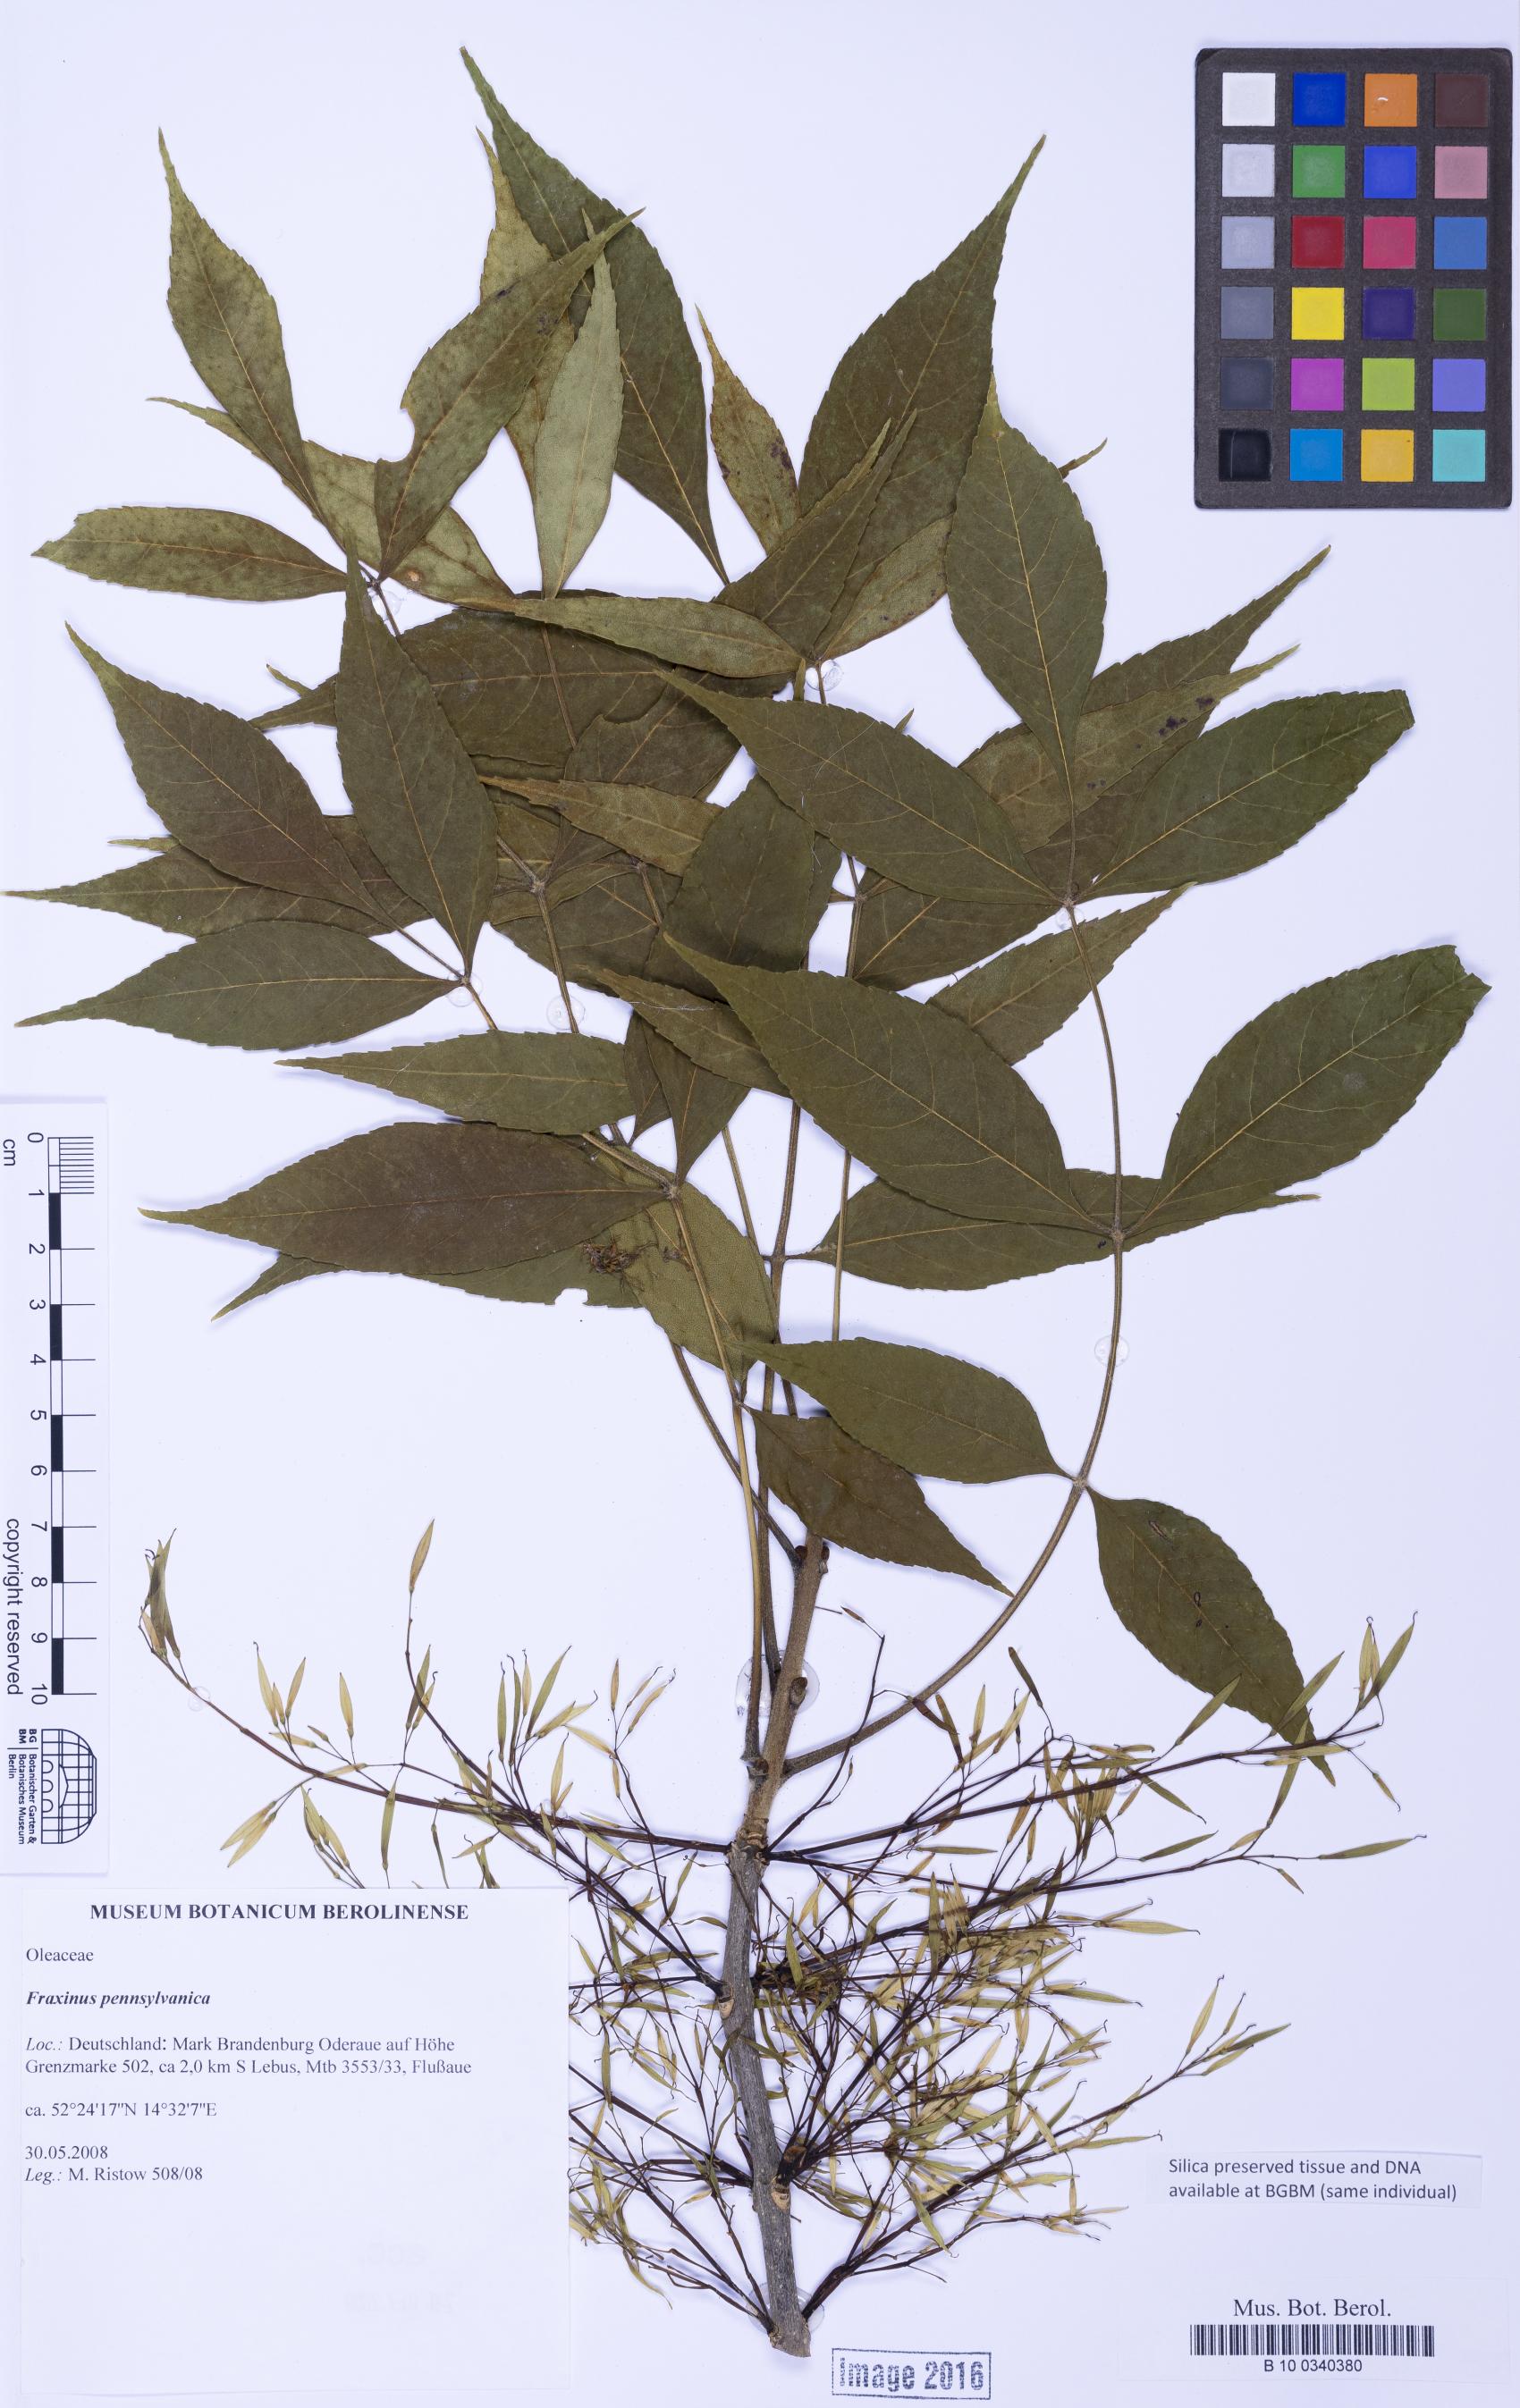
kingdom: Plantae
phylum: Tracheophyta
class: Magnoliopsida
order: Lamiales
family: Oleaceae
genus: Fraxinus
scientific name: Fraxinus pennsylvanica
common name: Green ash
